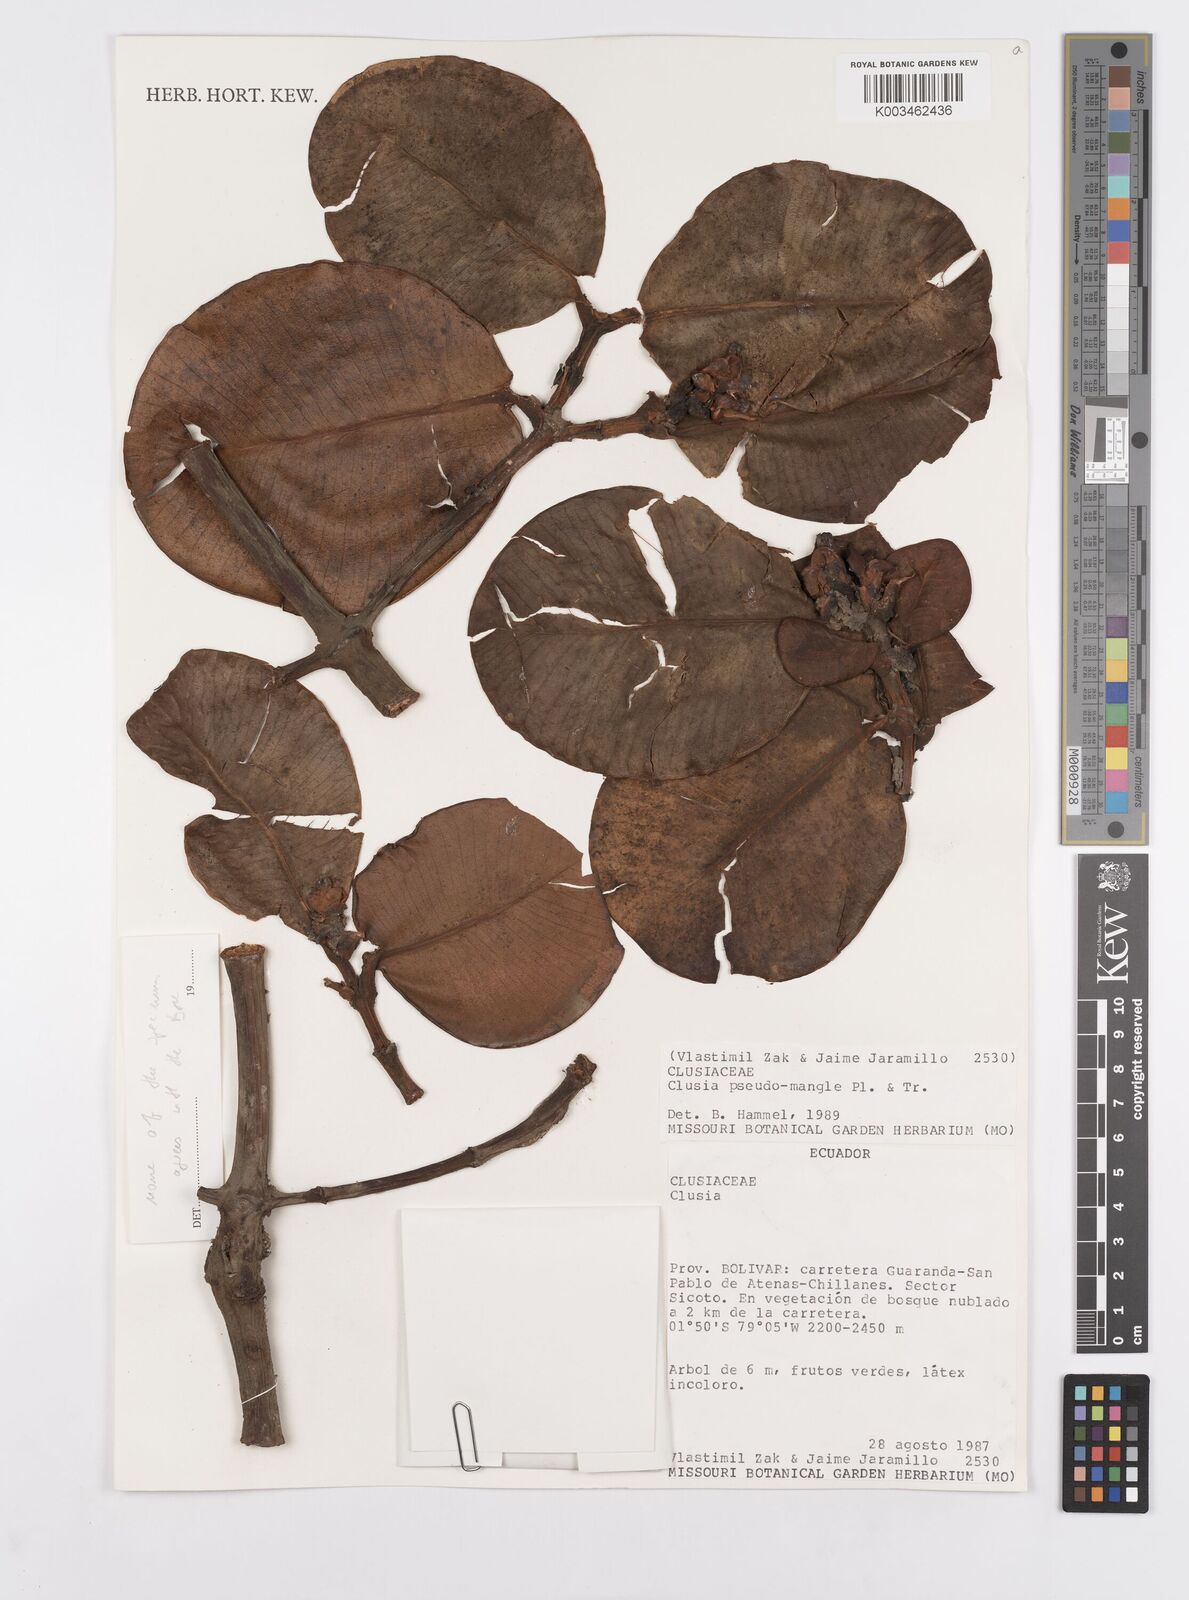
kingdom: Plantae
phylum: Tracheophyta
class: Magnoliopsida
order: Malpighiales
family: Clusiaceae
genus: Clusia
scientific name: Clusia pseudomangle
